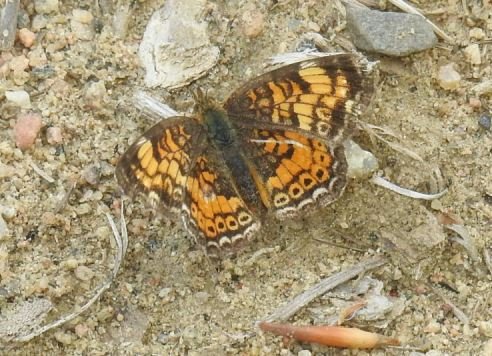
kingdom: Animalia
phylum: Arthropoda
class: Insecta
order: Lepidoptera
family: Nymphalidae
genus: Phyciodes
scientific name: Phyciodes tharos
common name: Pearl Crescent
